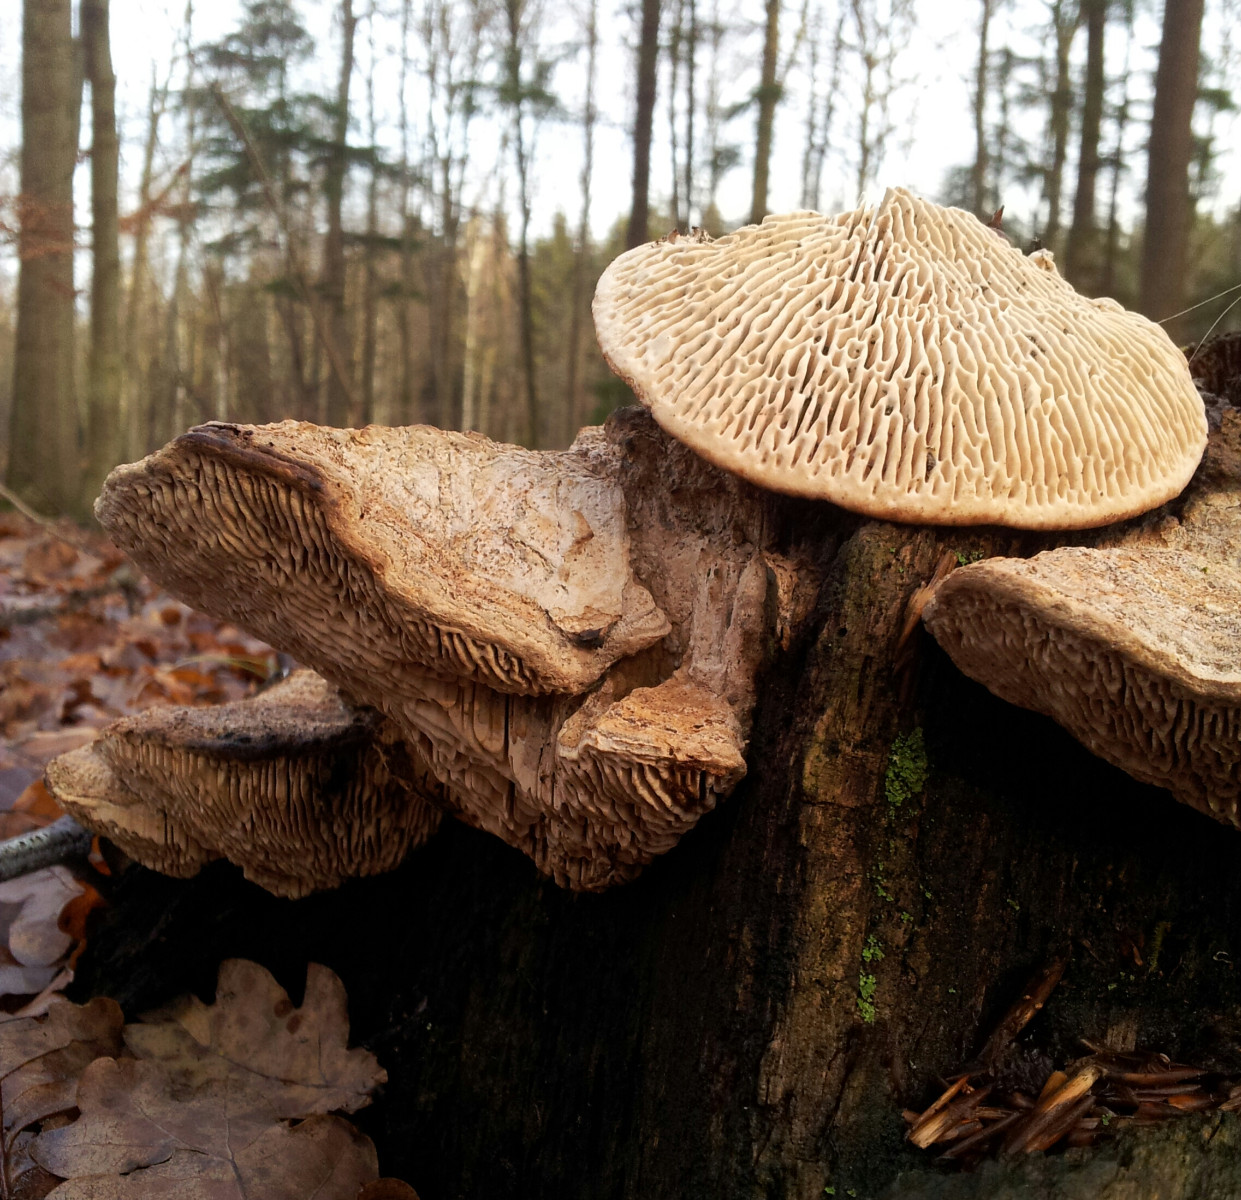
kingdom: Fungi
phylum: Basidiomycota
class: Agaricomycetes
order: Polyporales
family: Fomitopsidaceae
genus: Daedalea
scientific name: Daedalea quercina
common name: ege-labyrintsvamp
